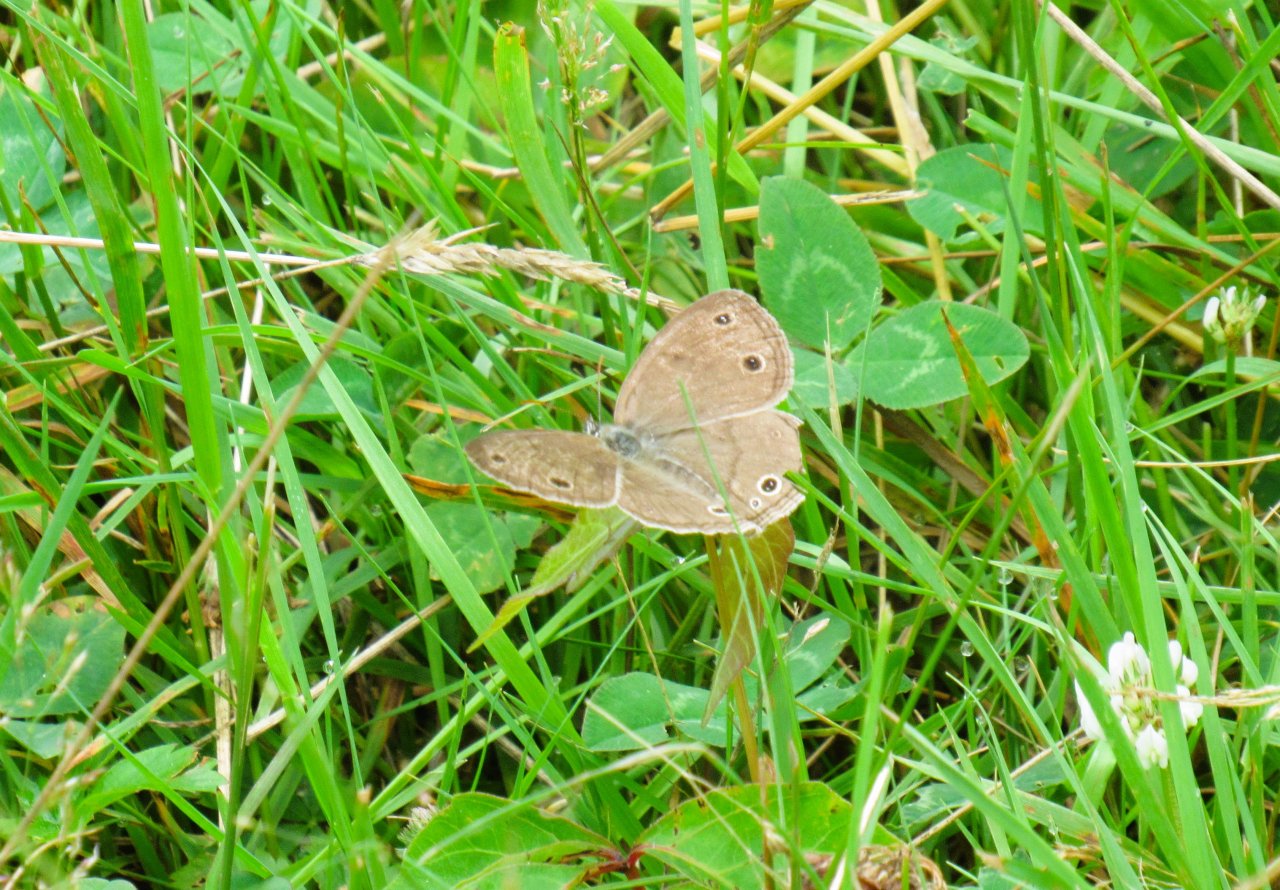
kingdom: Animalia
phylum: Arthropoda
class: Insecta
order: Lepidoptera
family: Nymphalidae
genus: Euptychia
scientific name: Euptychia cymela
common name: Little Wood Satyr
